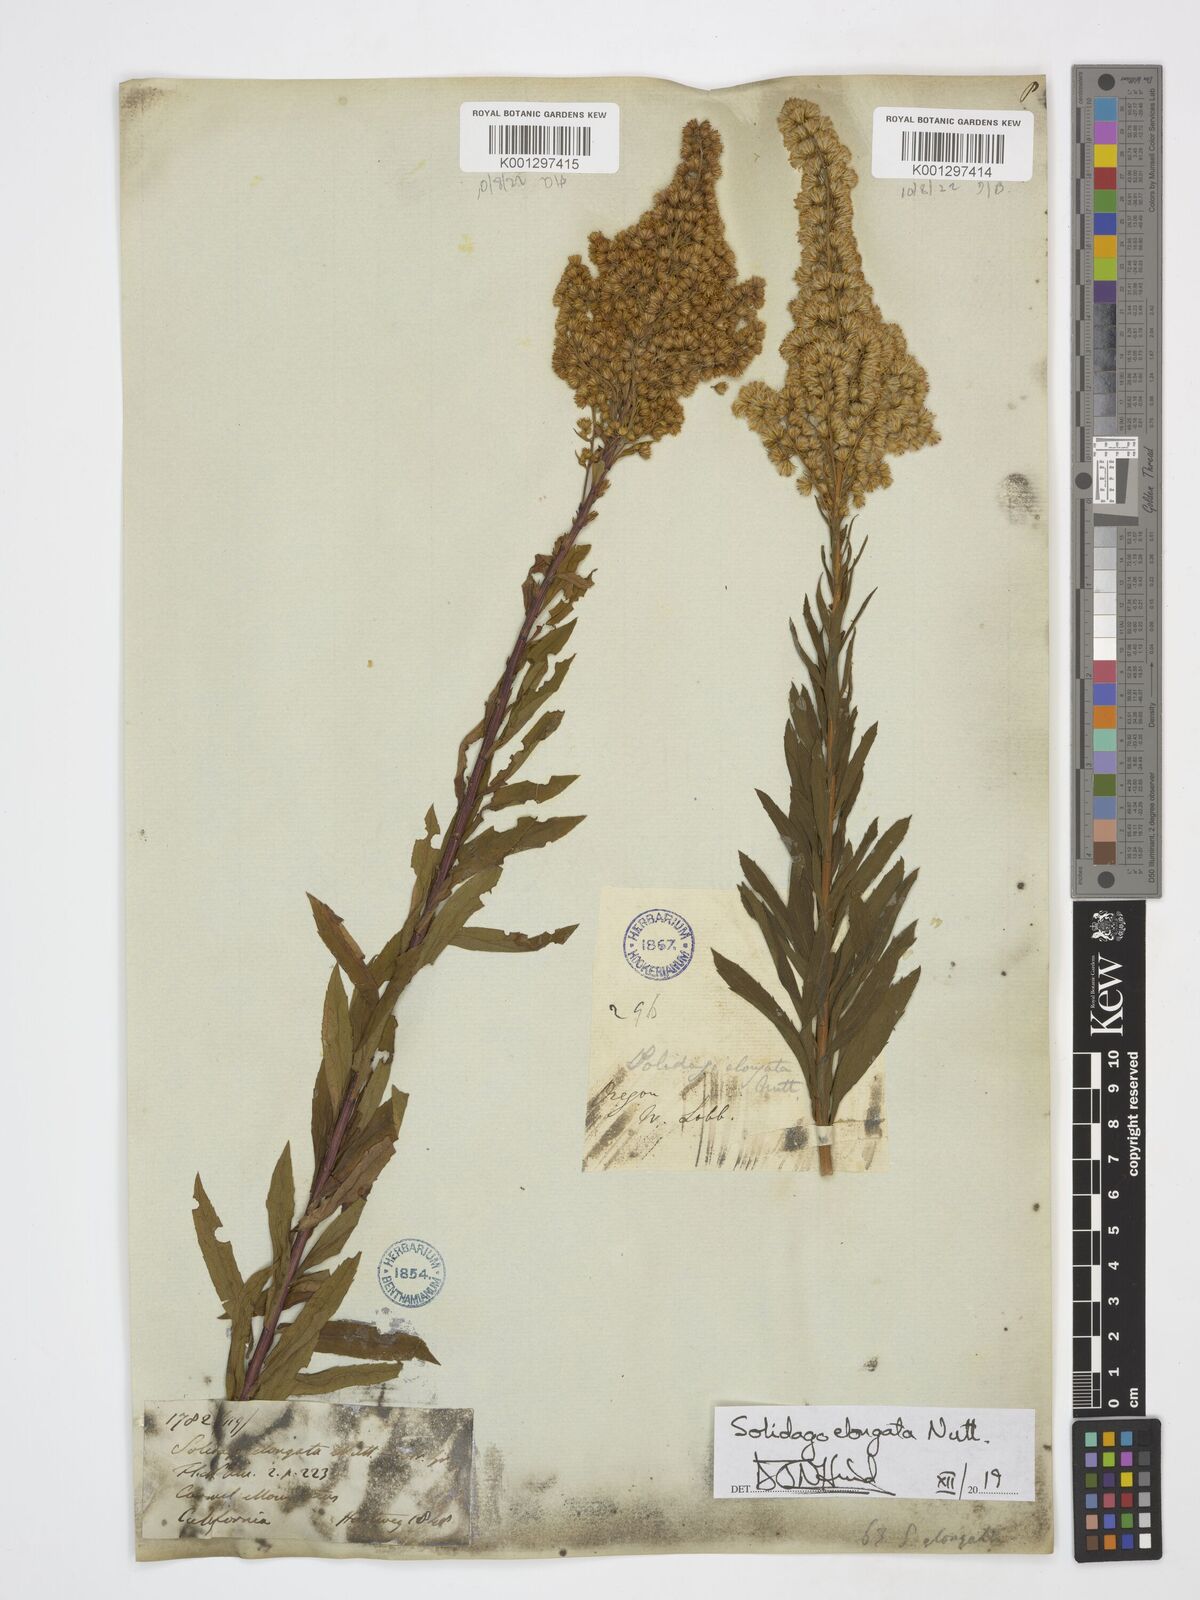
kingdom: Plantae
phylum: Tracheophyta
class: Magnoliopsida
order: Asterales
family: Asteraceae
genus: Solidago
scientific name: Solidago elongata
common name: Cascade canada goldenrod
